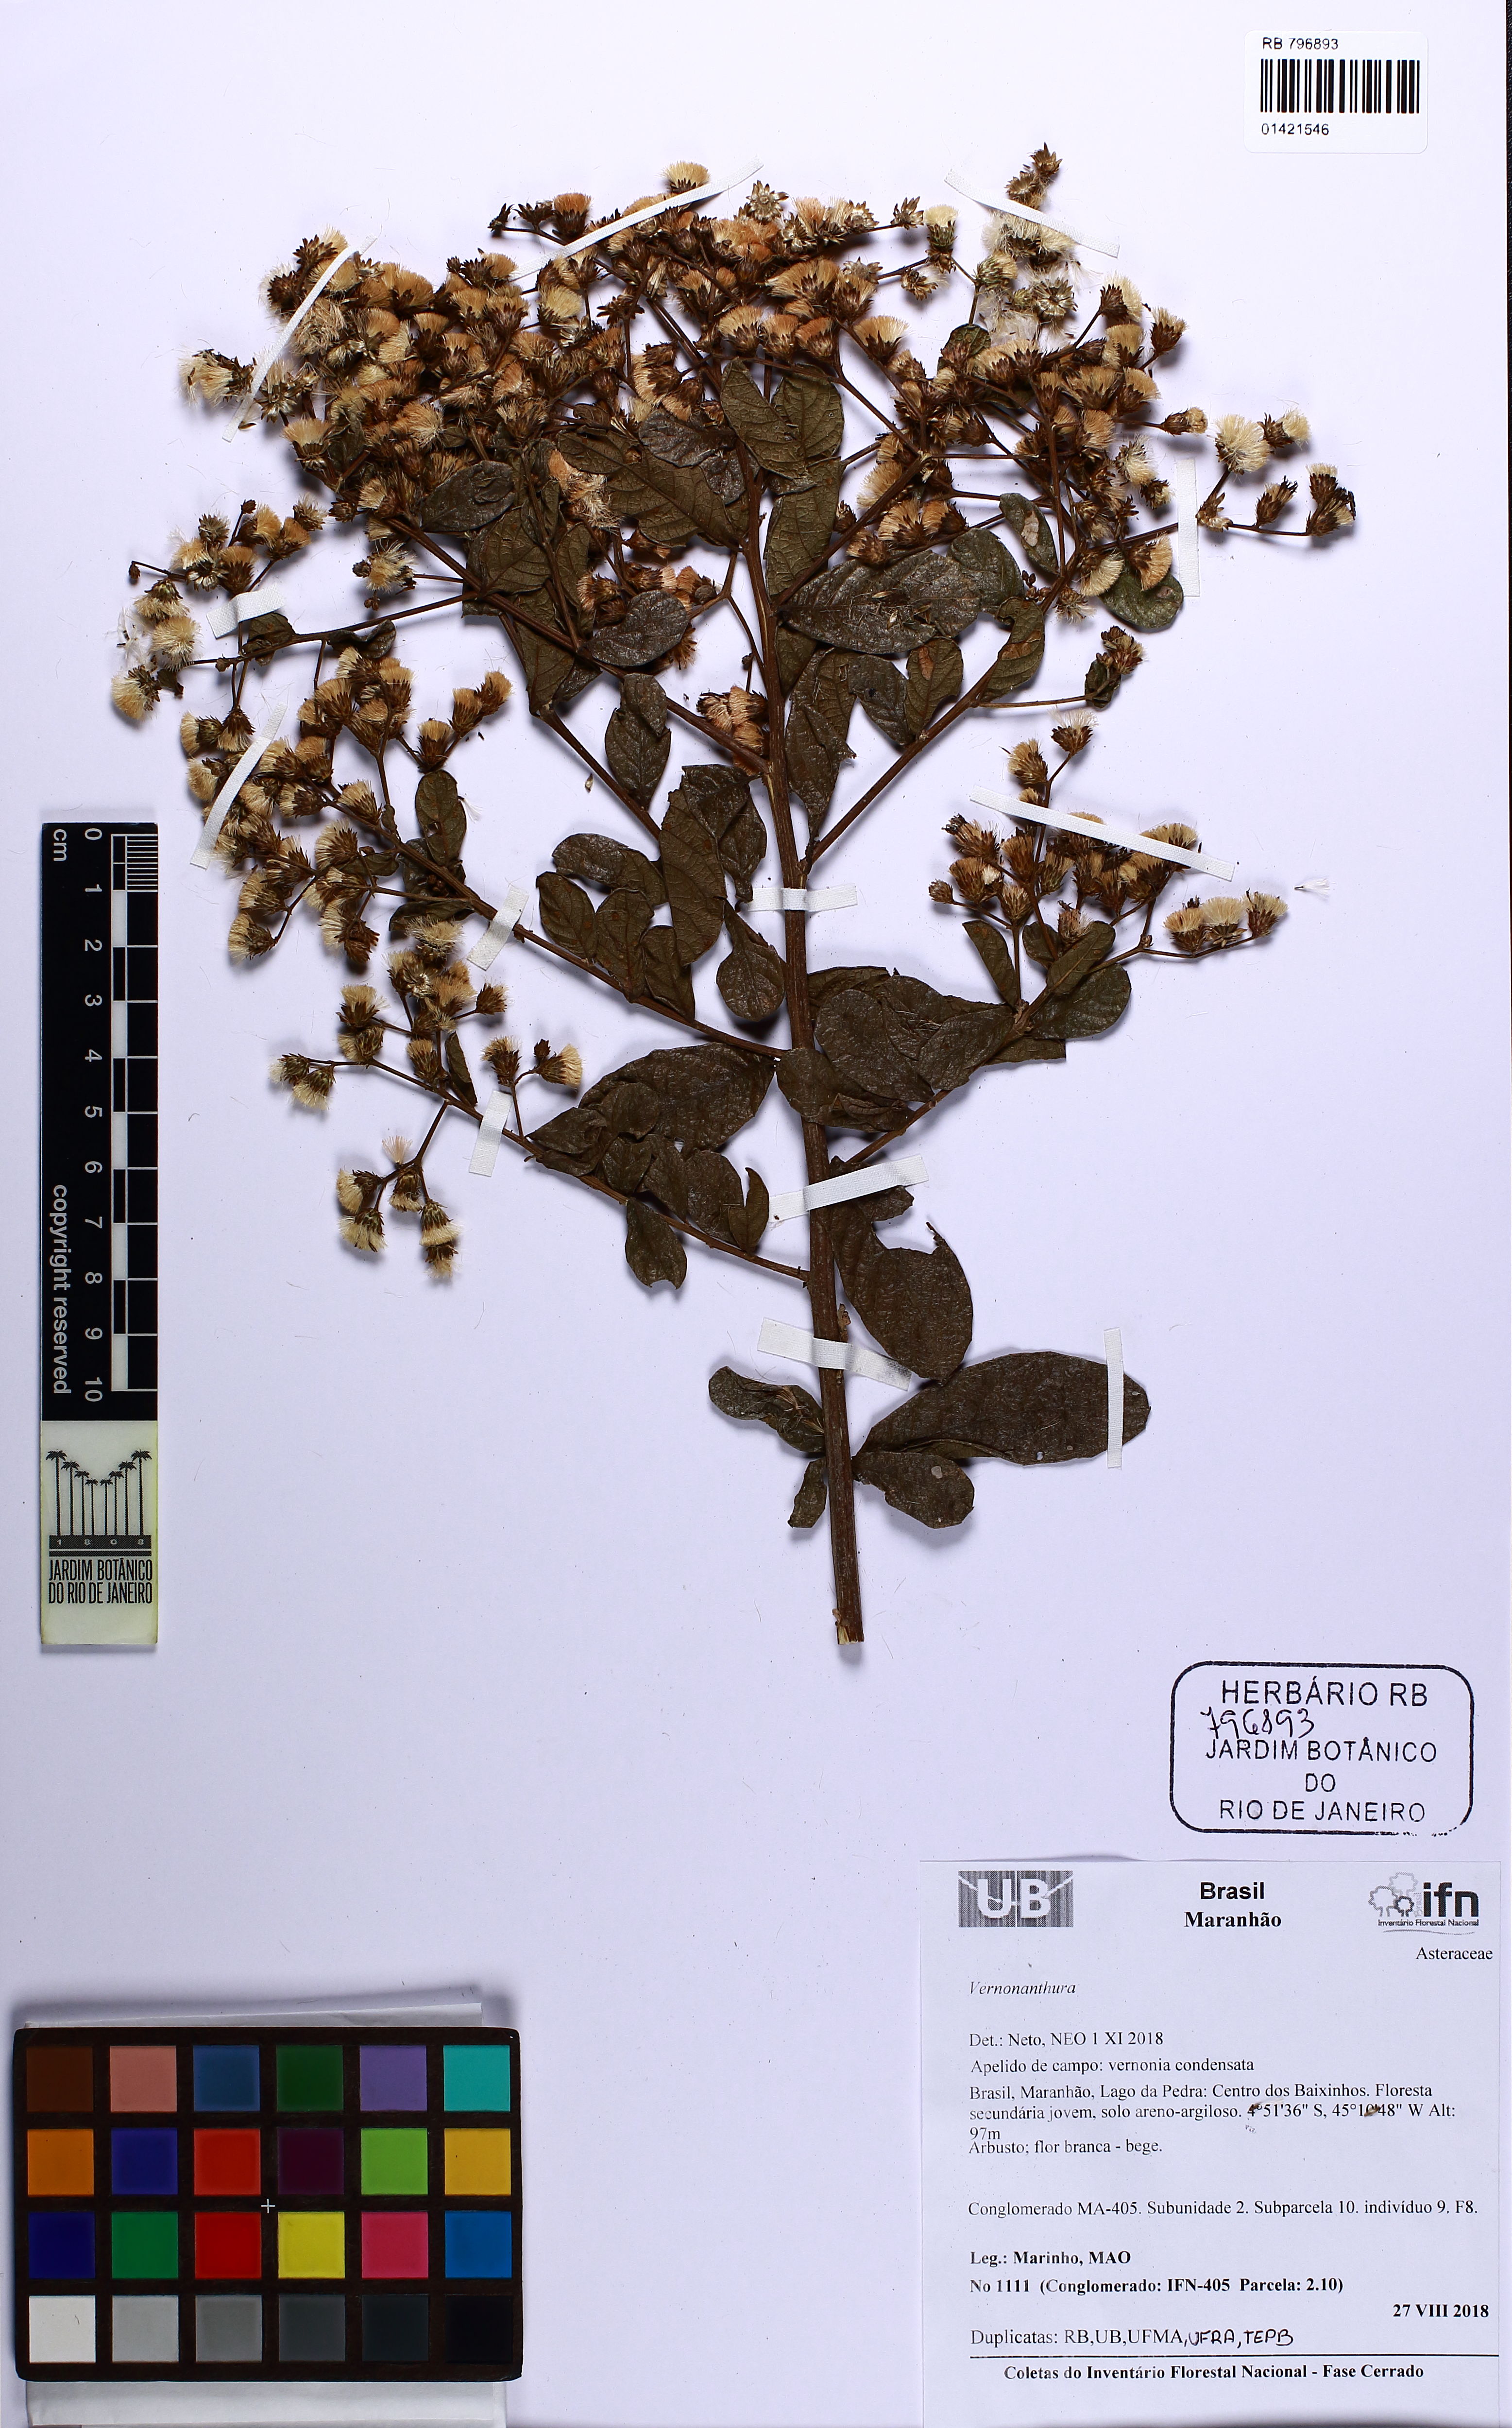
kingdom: Plantae
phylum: Tracheophyta
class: Magnoliopsida
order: Asterales
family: Asteraceae
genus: Vernonanthura
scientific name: Vernonanthura
